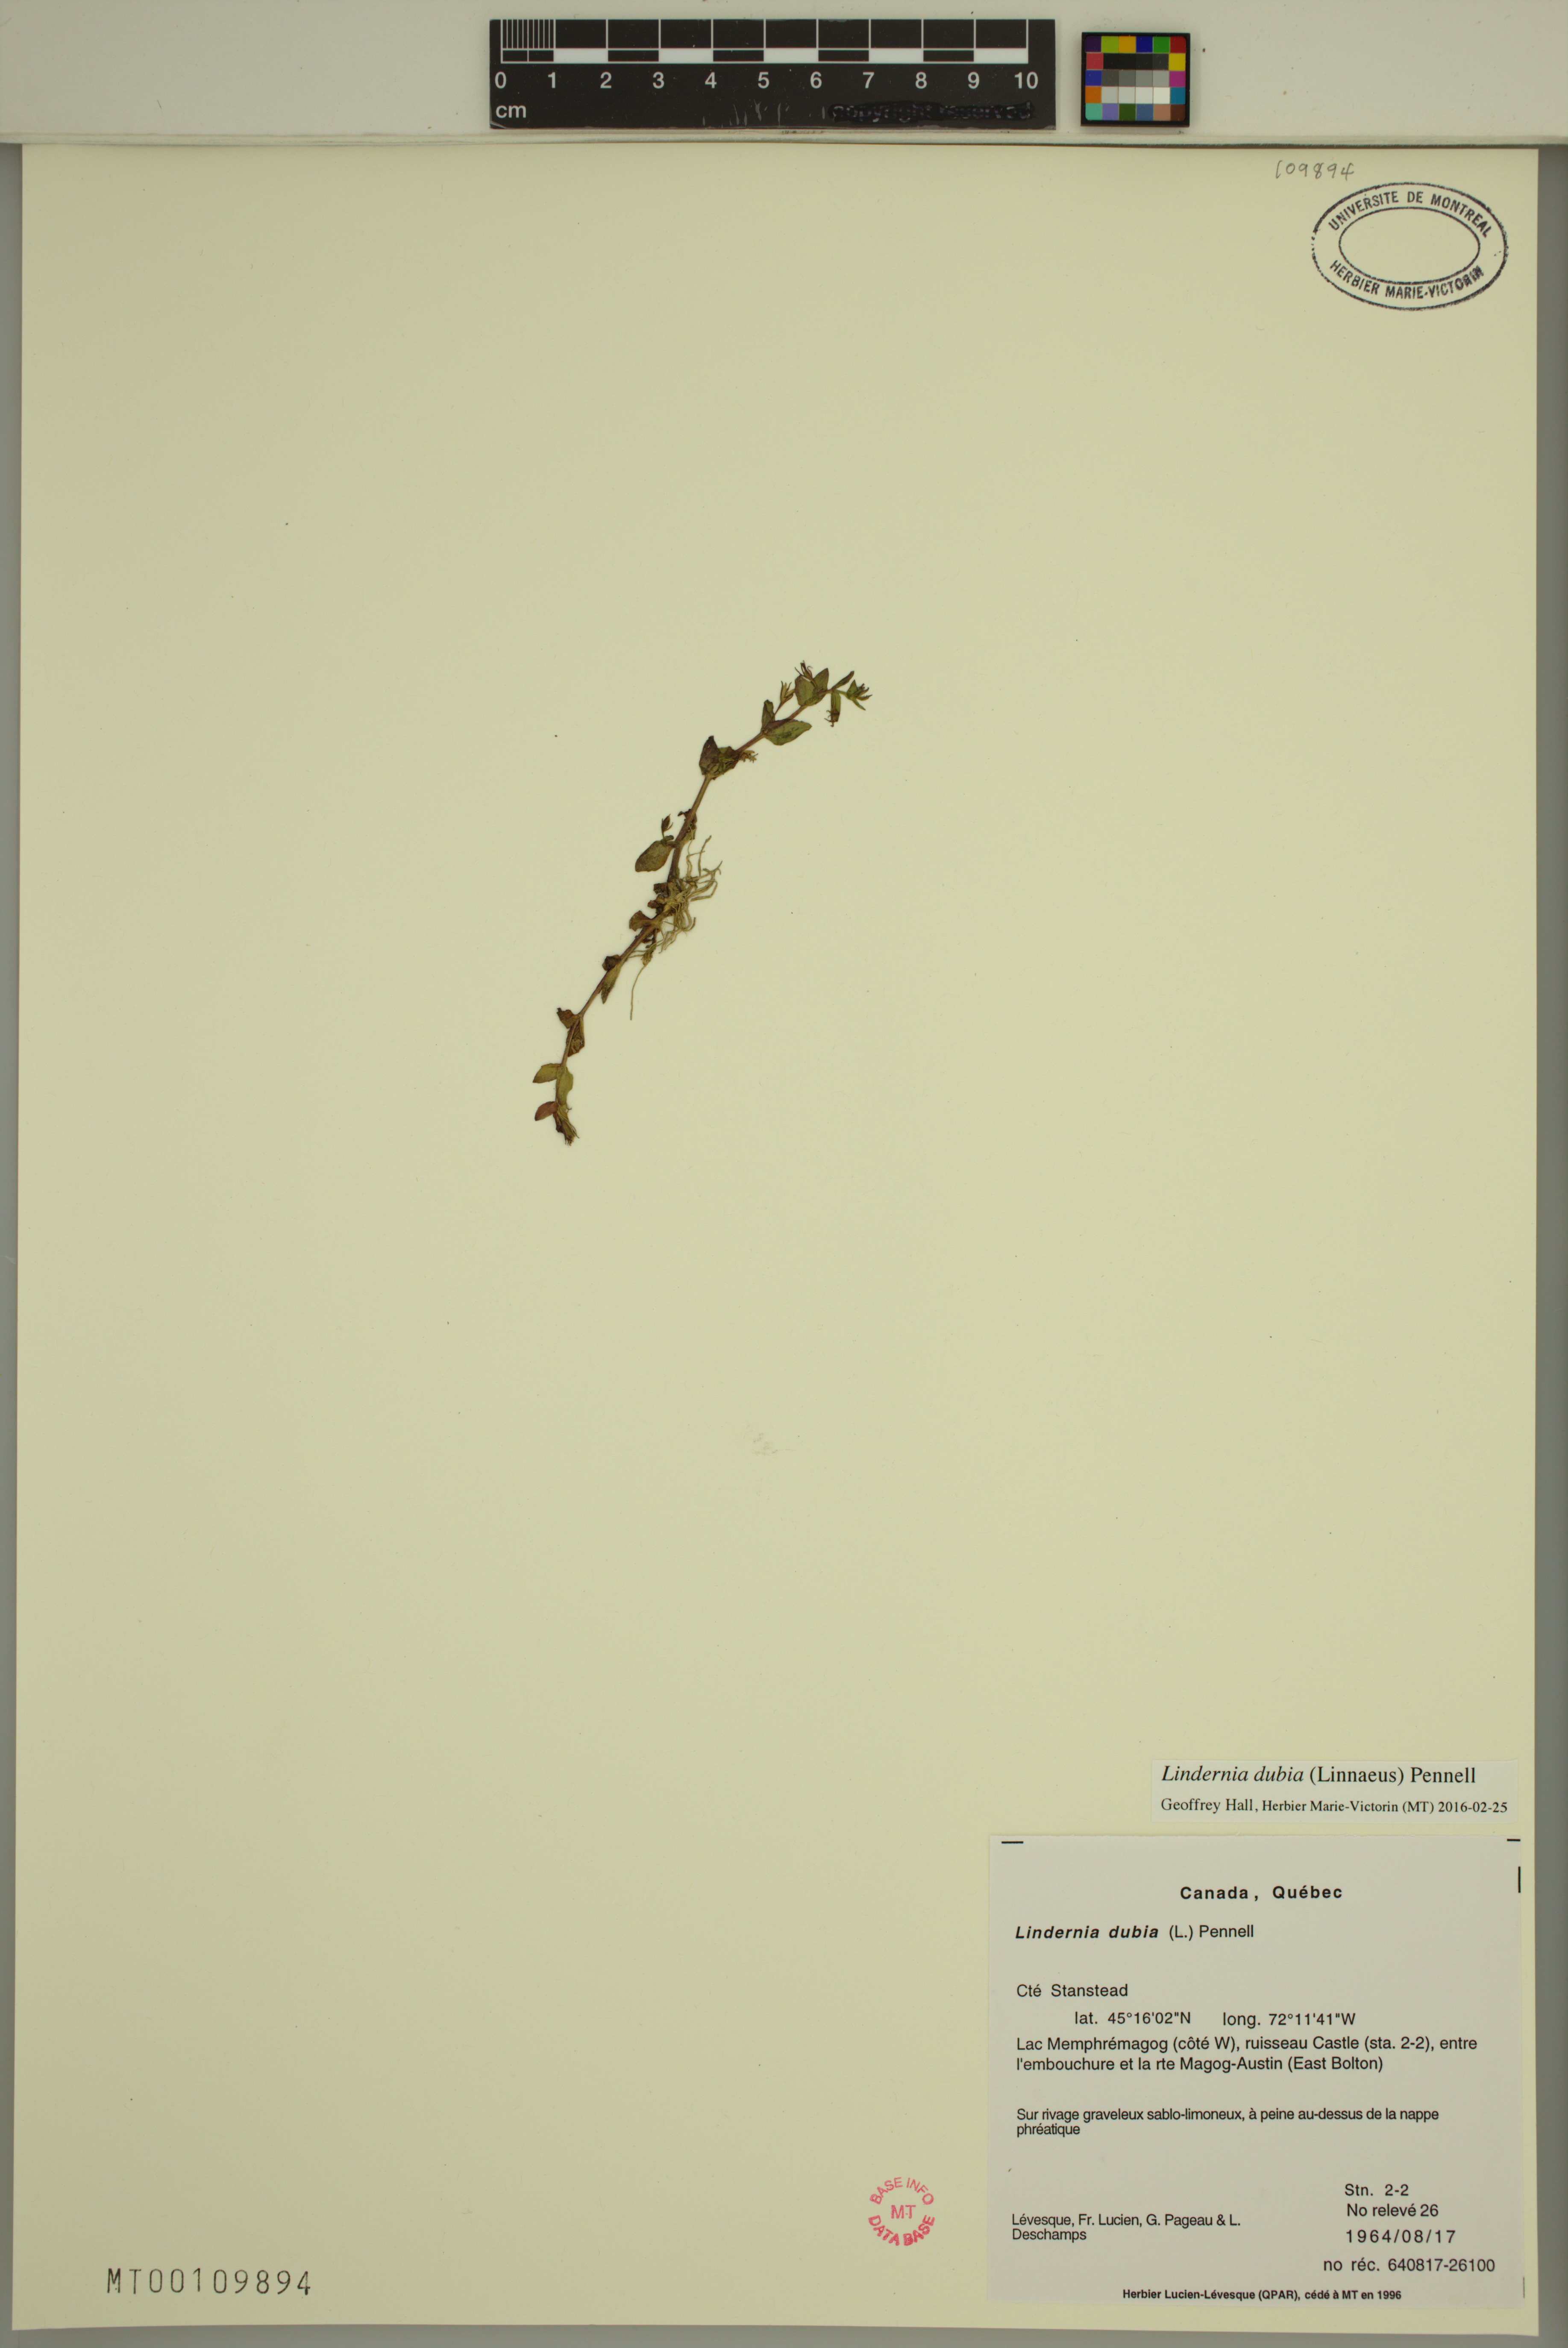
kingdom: Plantae
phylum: Tracheophyta
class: Magnoliopsida
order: Lamiales
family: Linderniaceae
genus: Lindernia
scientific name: Lindernia dubia
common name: Annual false pimpernel
